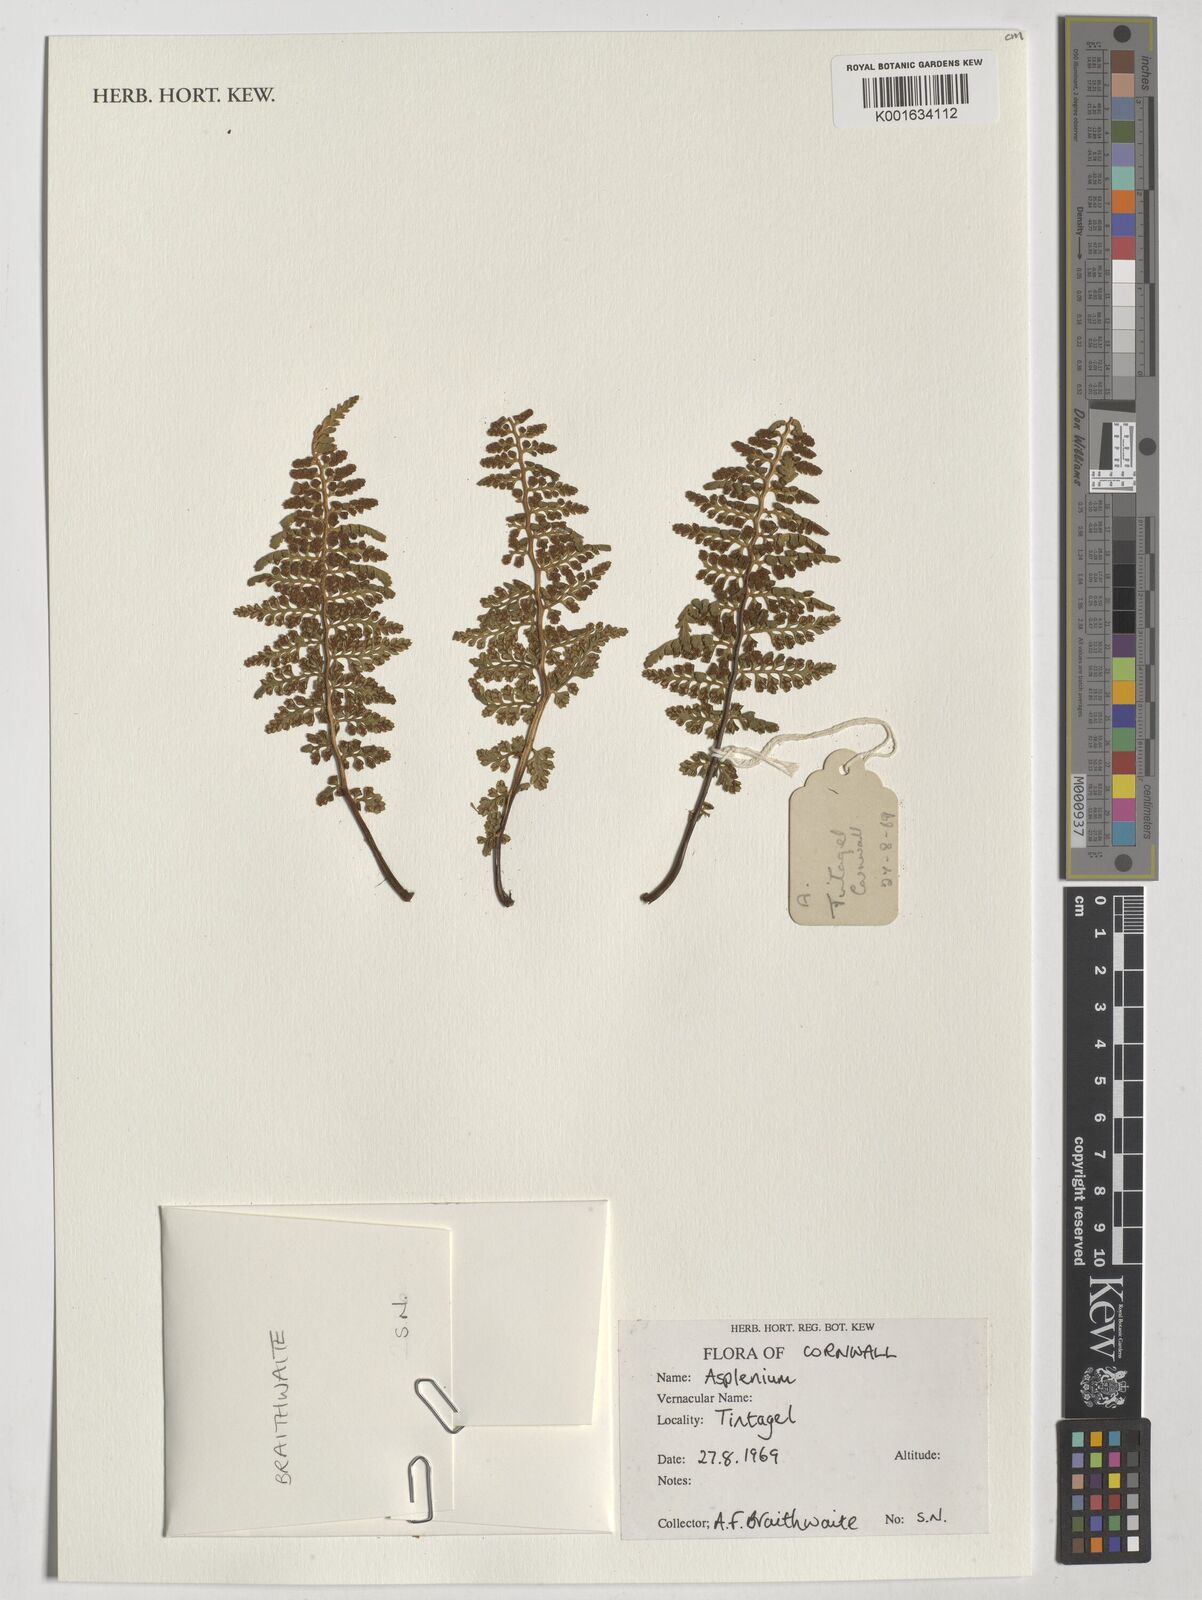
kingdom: Plantae
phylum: Tracheophyta
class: Polypodiopsida
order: Polypodiales
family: Aspleniaceae
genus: Asplenium
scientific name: Asplenium
